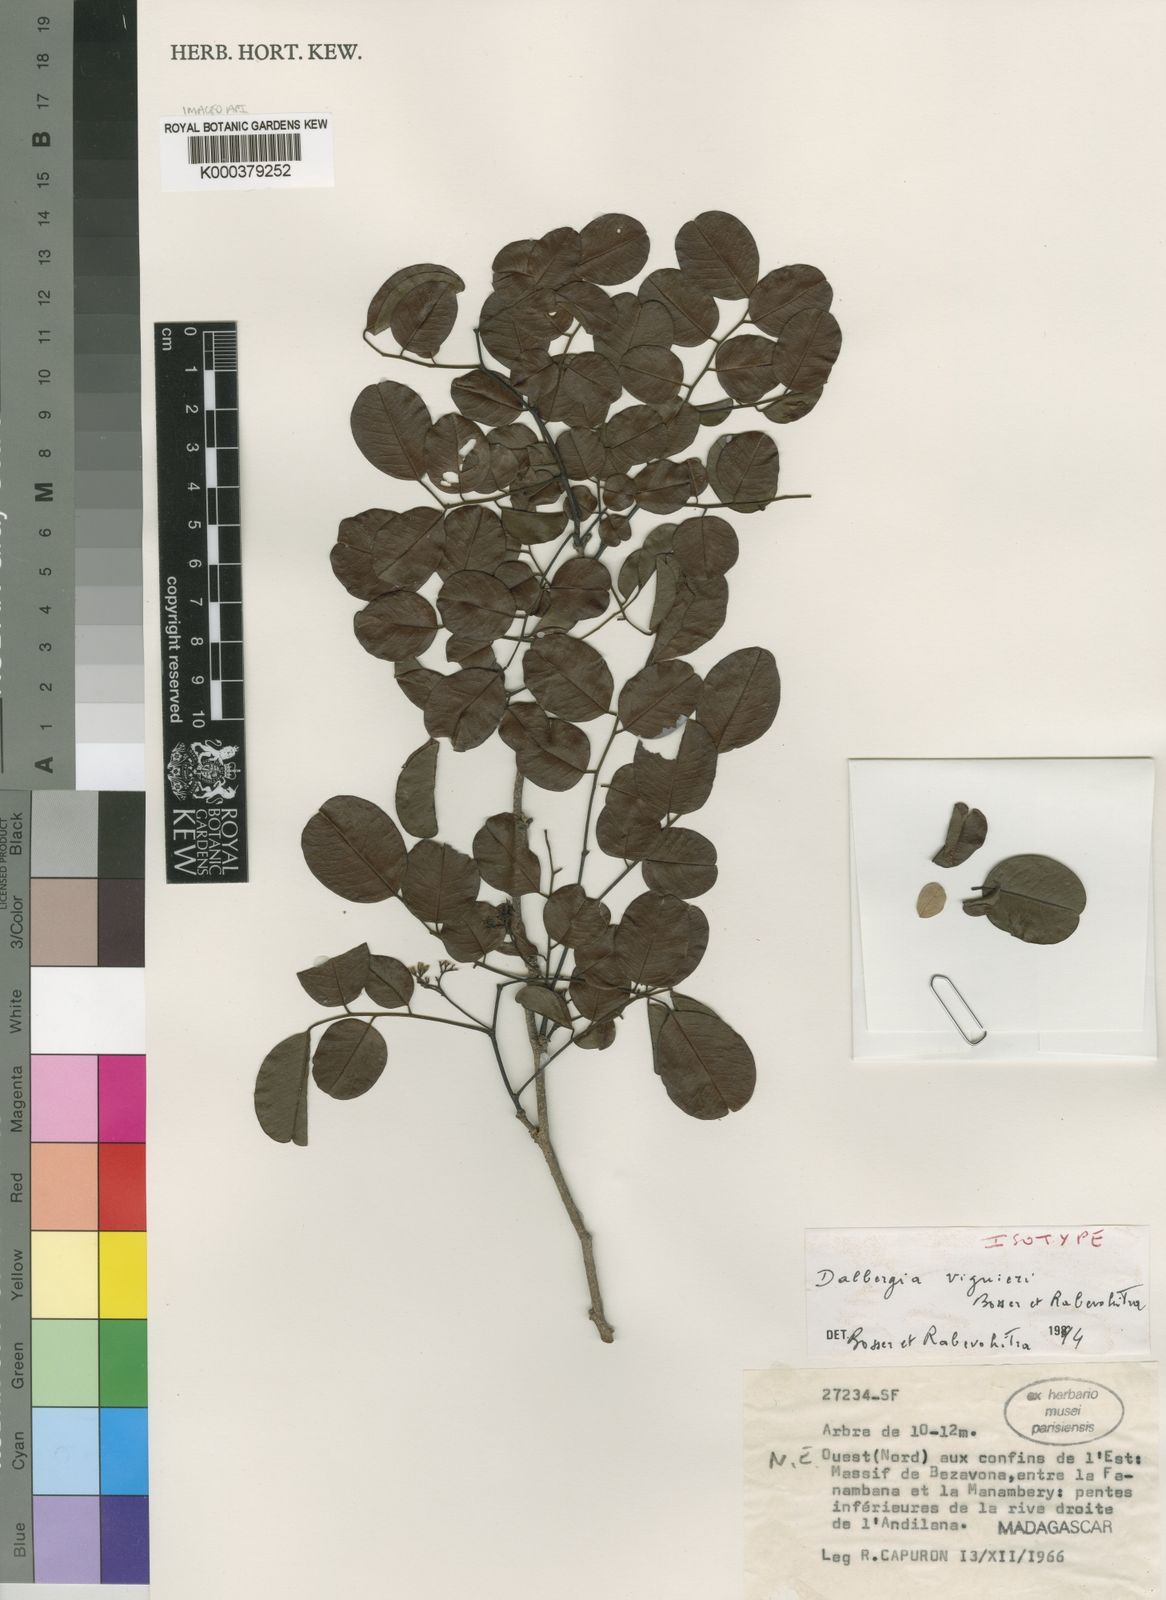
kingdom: Plantae
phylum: Tracheophyta
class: Magnoliopsida
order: Fabales
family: Fabaceae
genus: Dalbergia
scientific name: Dalbergia viguieri
